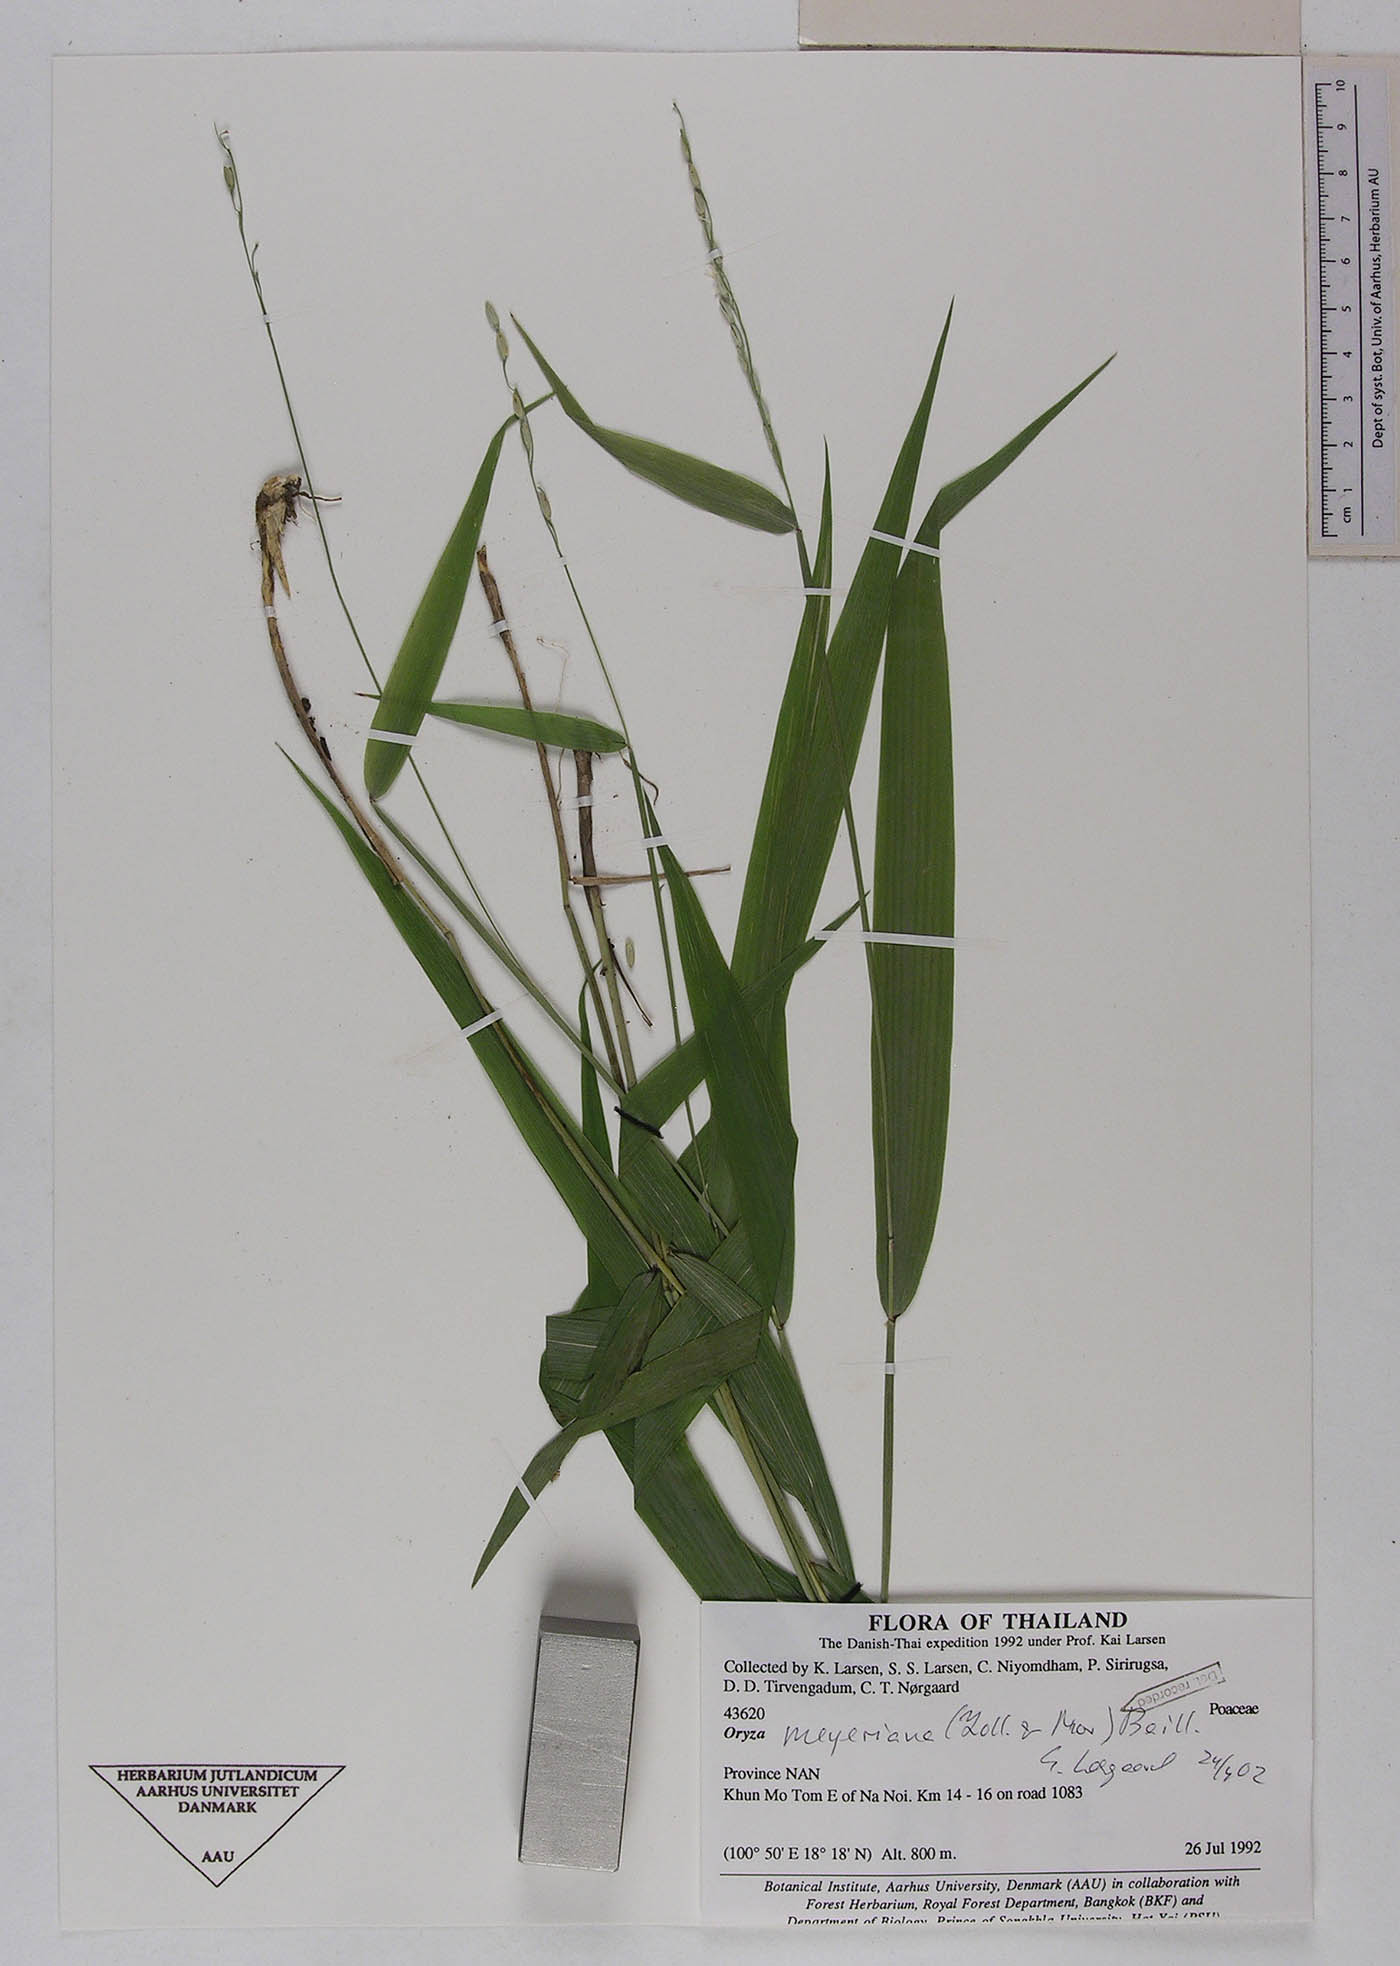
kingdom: Plantae
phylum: Tracheophyta
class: Liliopsida
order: Poales
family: Poaceae
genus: Oryza
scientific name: Oryza meyeriana
